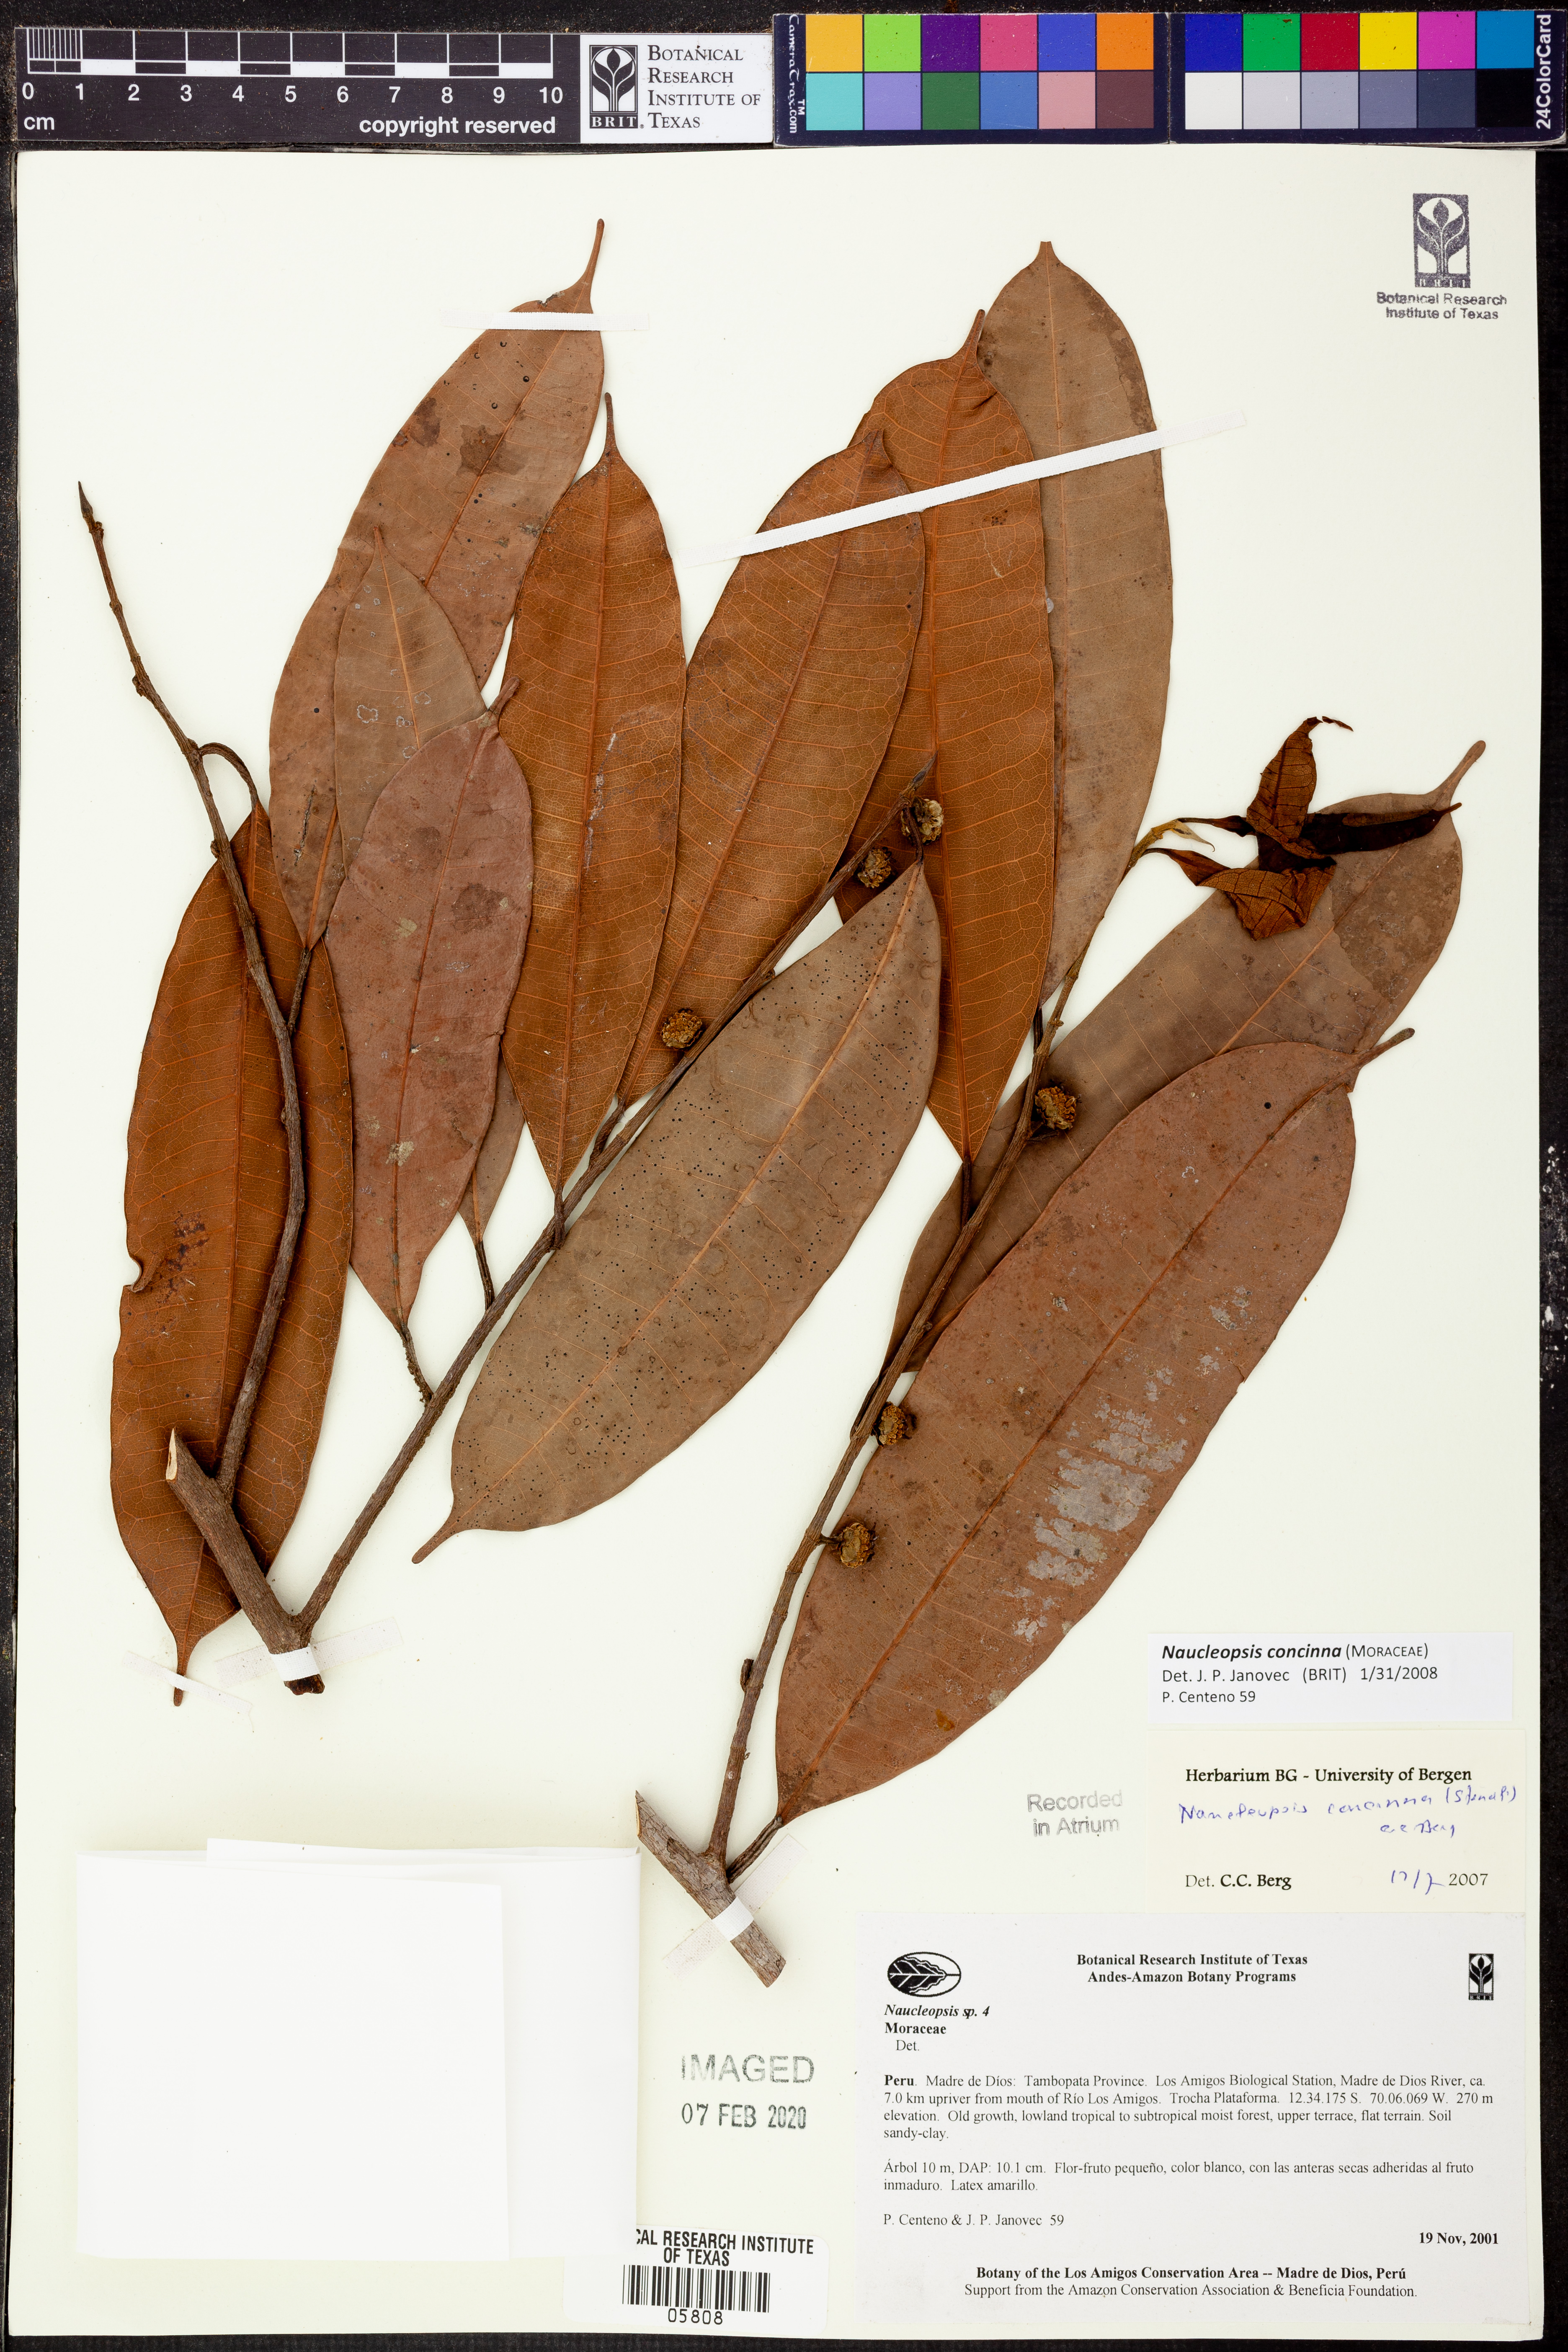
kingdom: Plantae
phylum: Tracheophyta
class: Magnoliopsida
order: Rosales
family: Moraceae
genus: Naucleopsis
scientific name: Naucleopsis concinna
